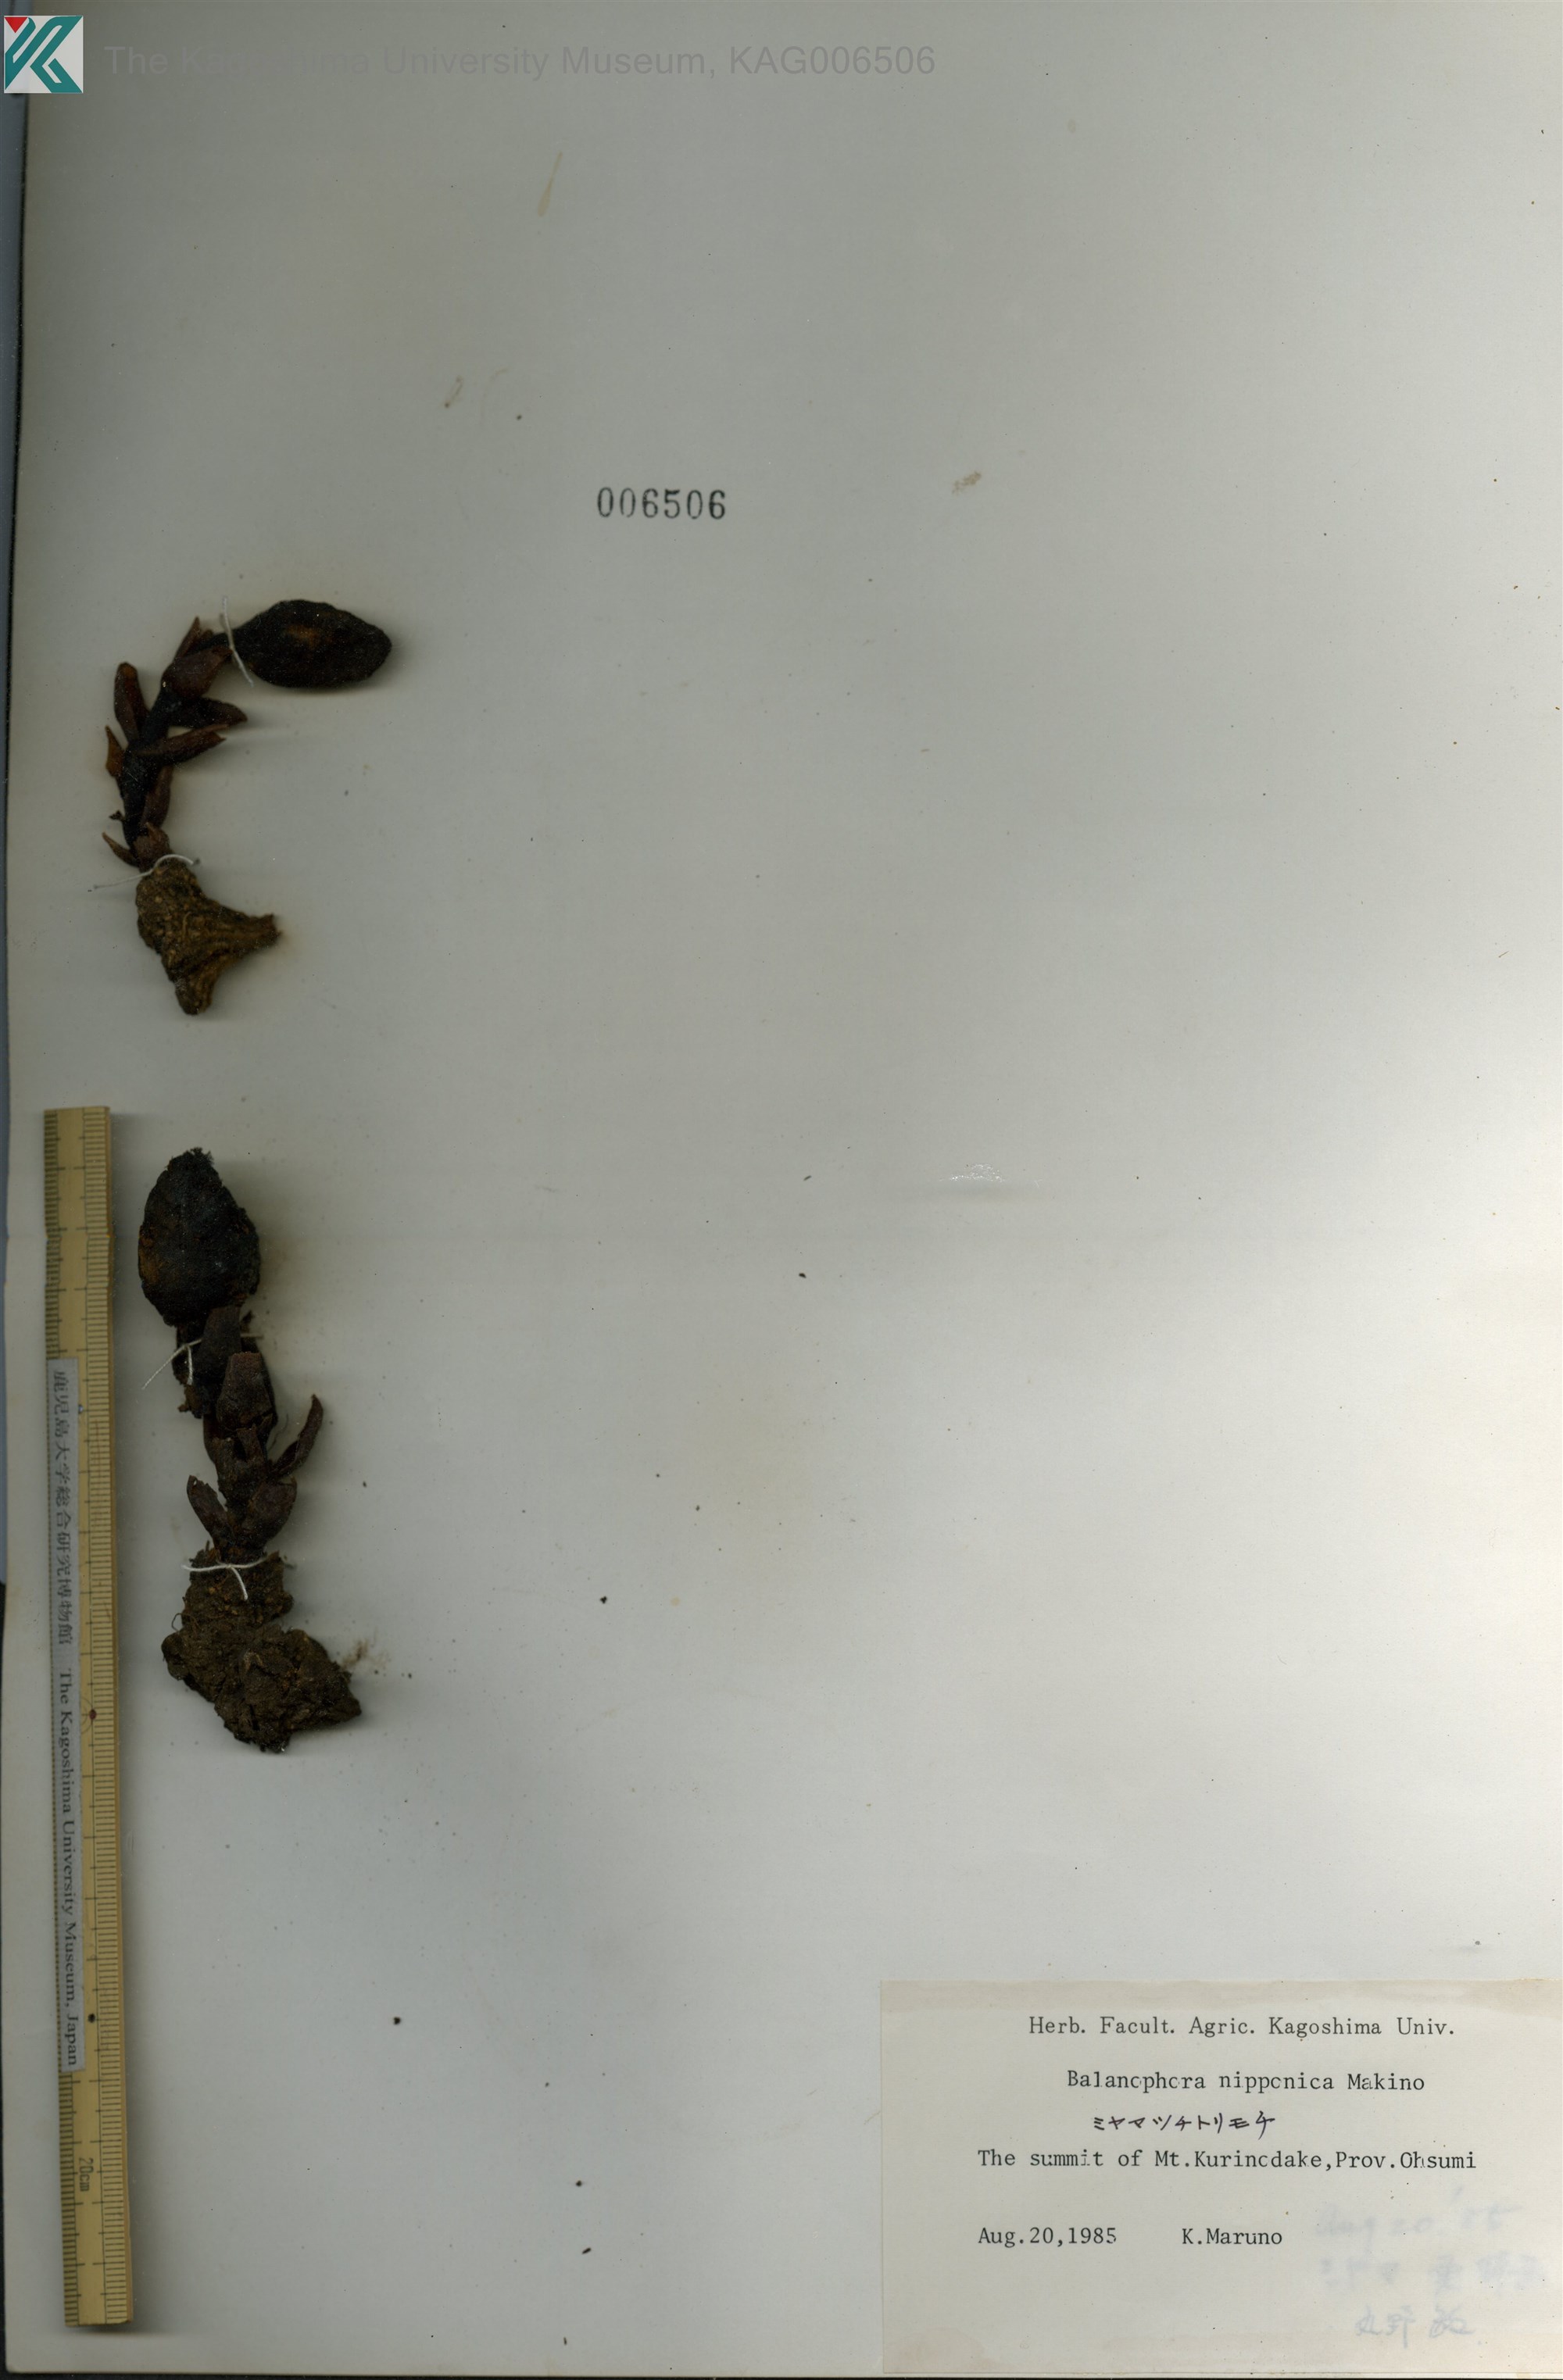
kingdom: Plantae
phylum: Tracheophyta
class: Magnoliopsida
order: Santalales
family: Balanophoraceae
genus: Balanophora
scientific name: Balanophora nipponica
